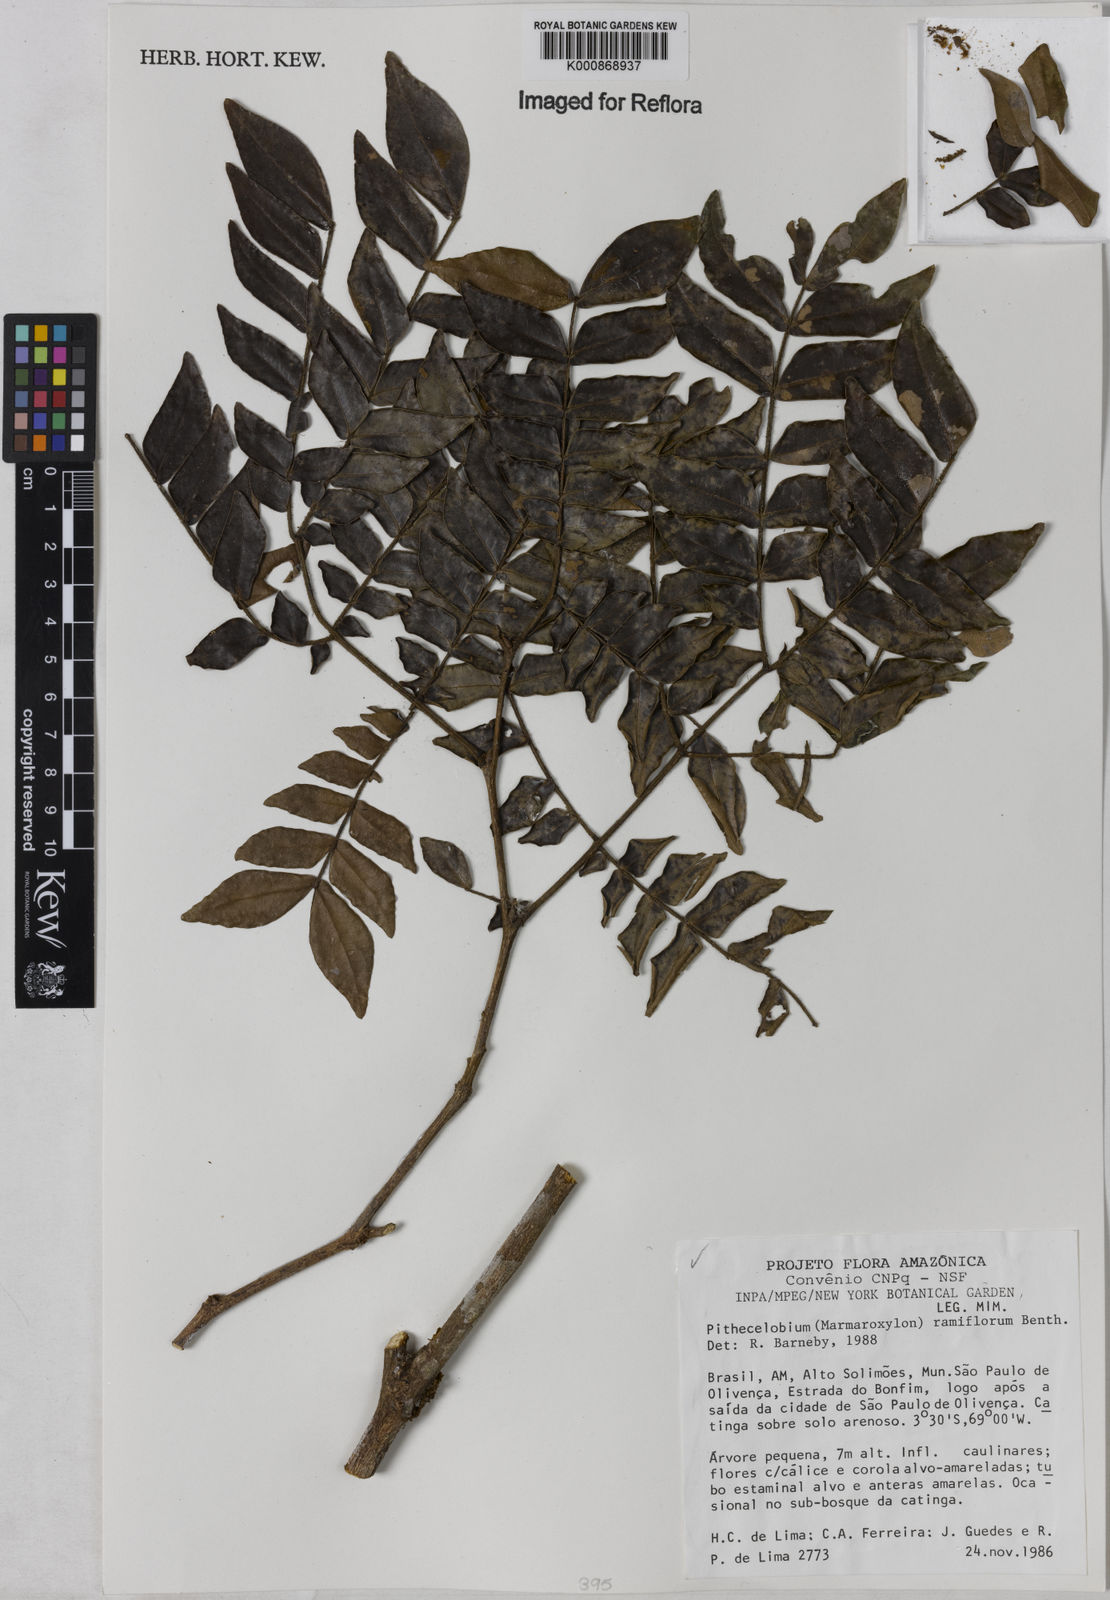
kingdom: Plantae
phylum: Tracheophyta
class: Magnoliopsida
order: Fabales
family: Fabaceae
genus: Zygia
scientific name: Zygia dinizii
